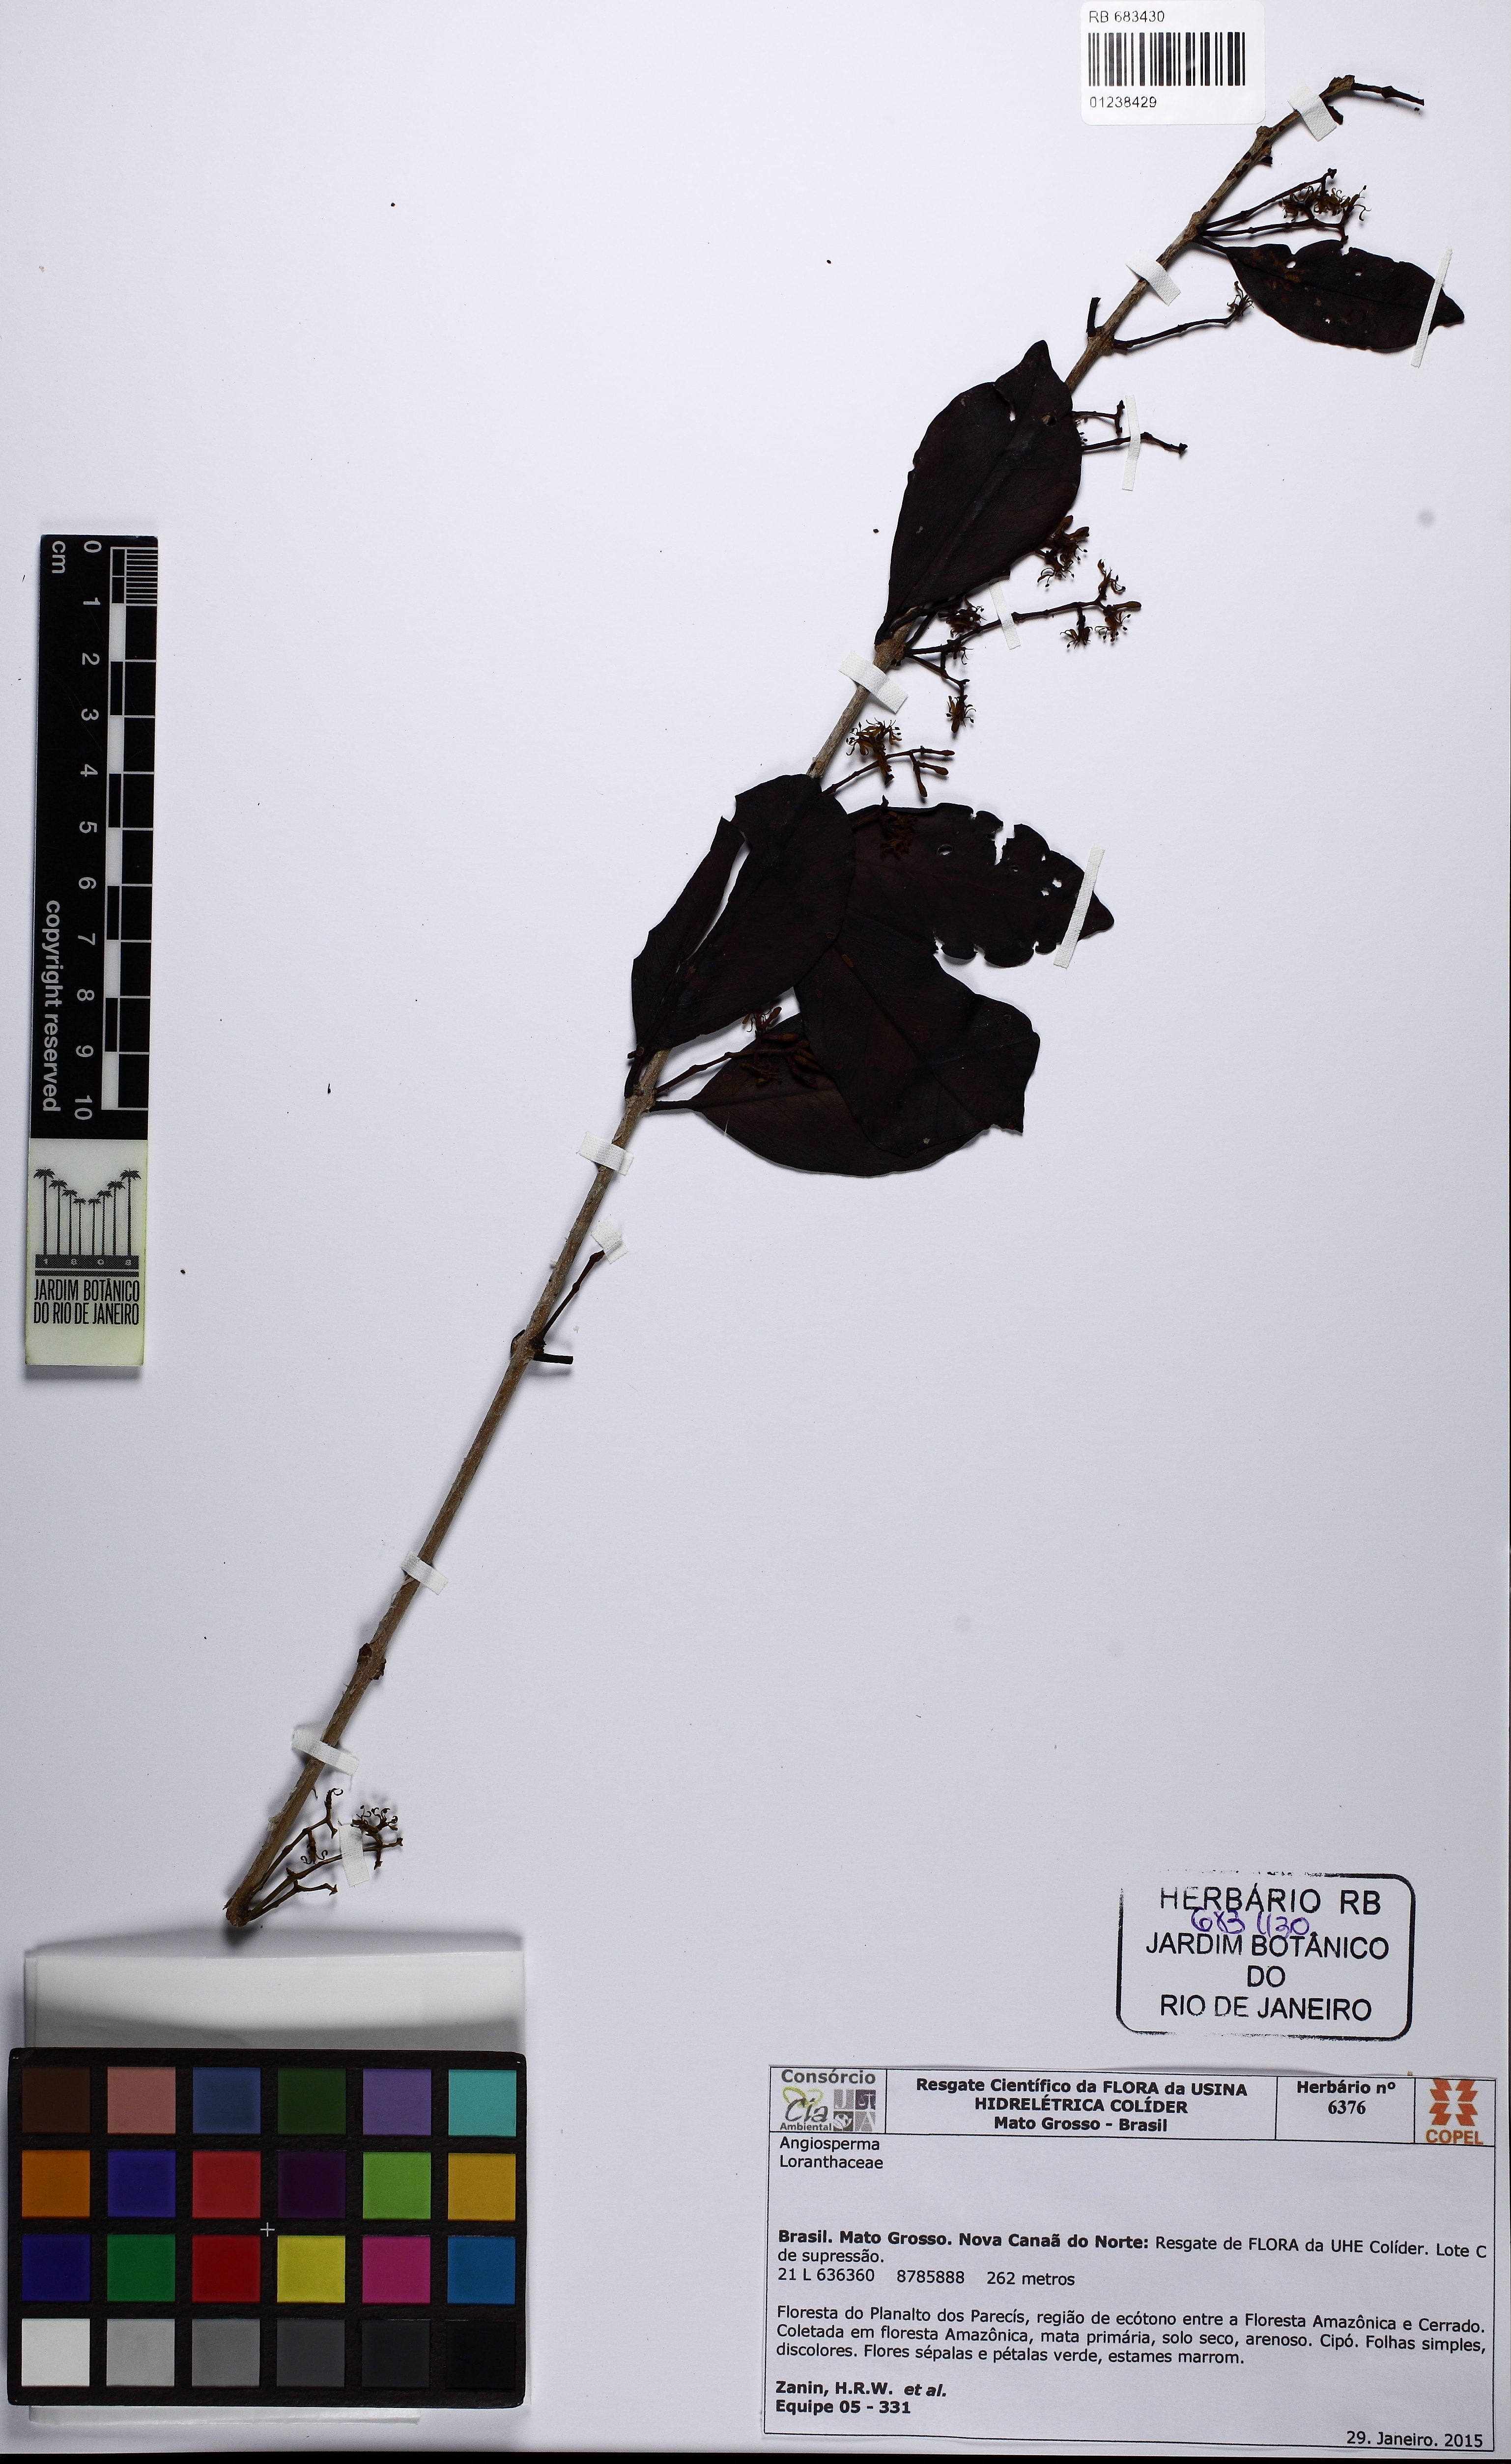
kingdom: Plantae
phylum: Tracheophyta
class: Magnoliopsida
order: Santalales
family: Loranthaceae
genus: Struthanthus
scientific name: Struthanthus
